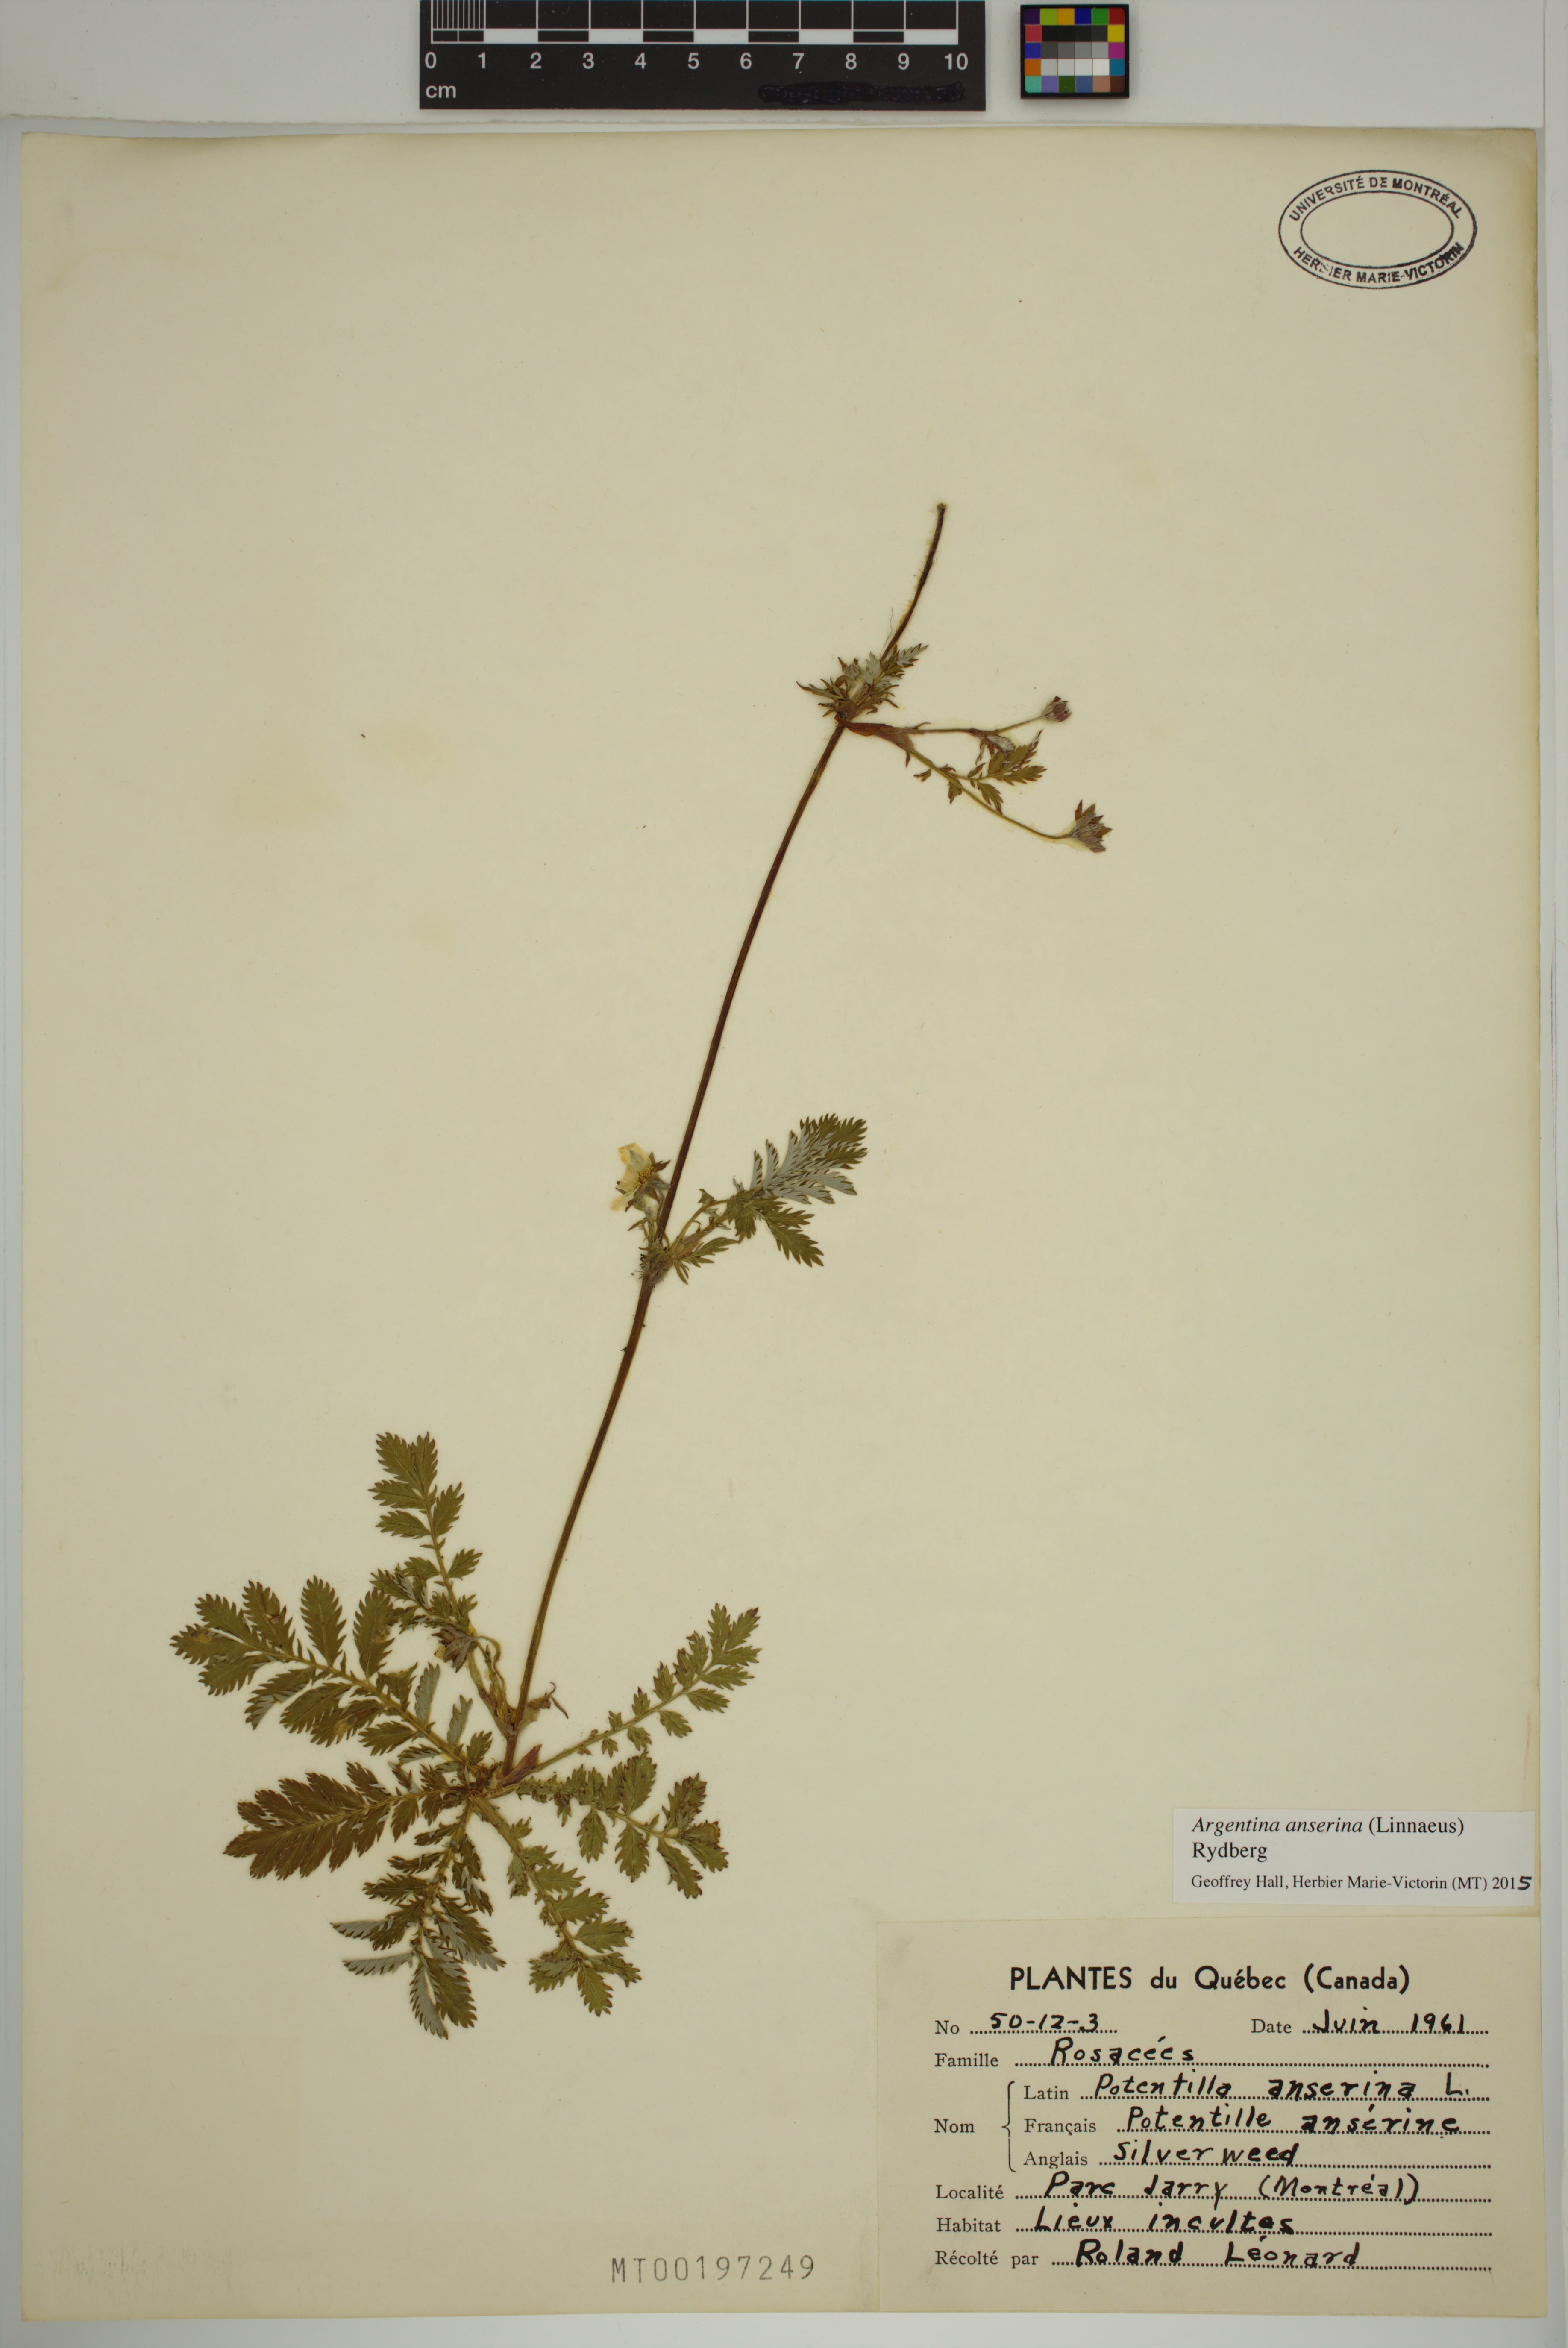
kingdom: Plantae
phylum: Tracheophyta
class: Magnoliopsida
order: Rosales
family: Rosaceae
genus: Argentina
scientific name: Argentina anserina
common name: Common silverweed
